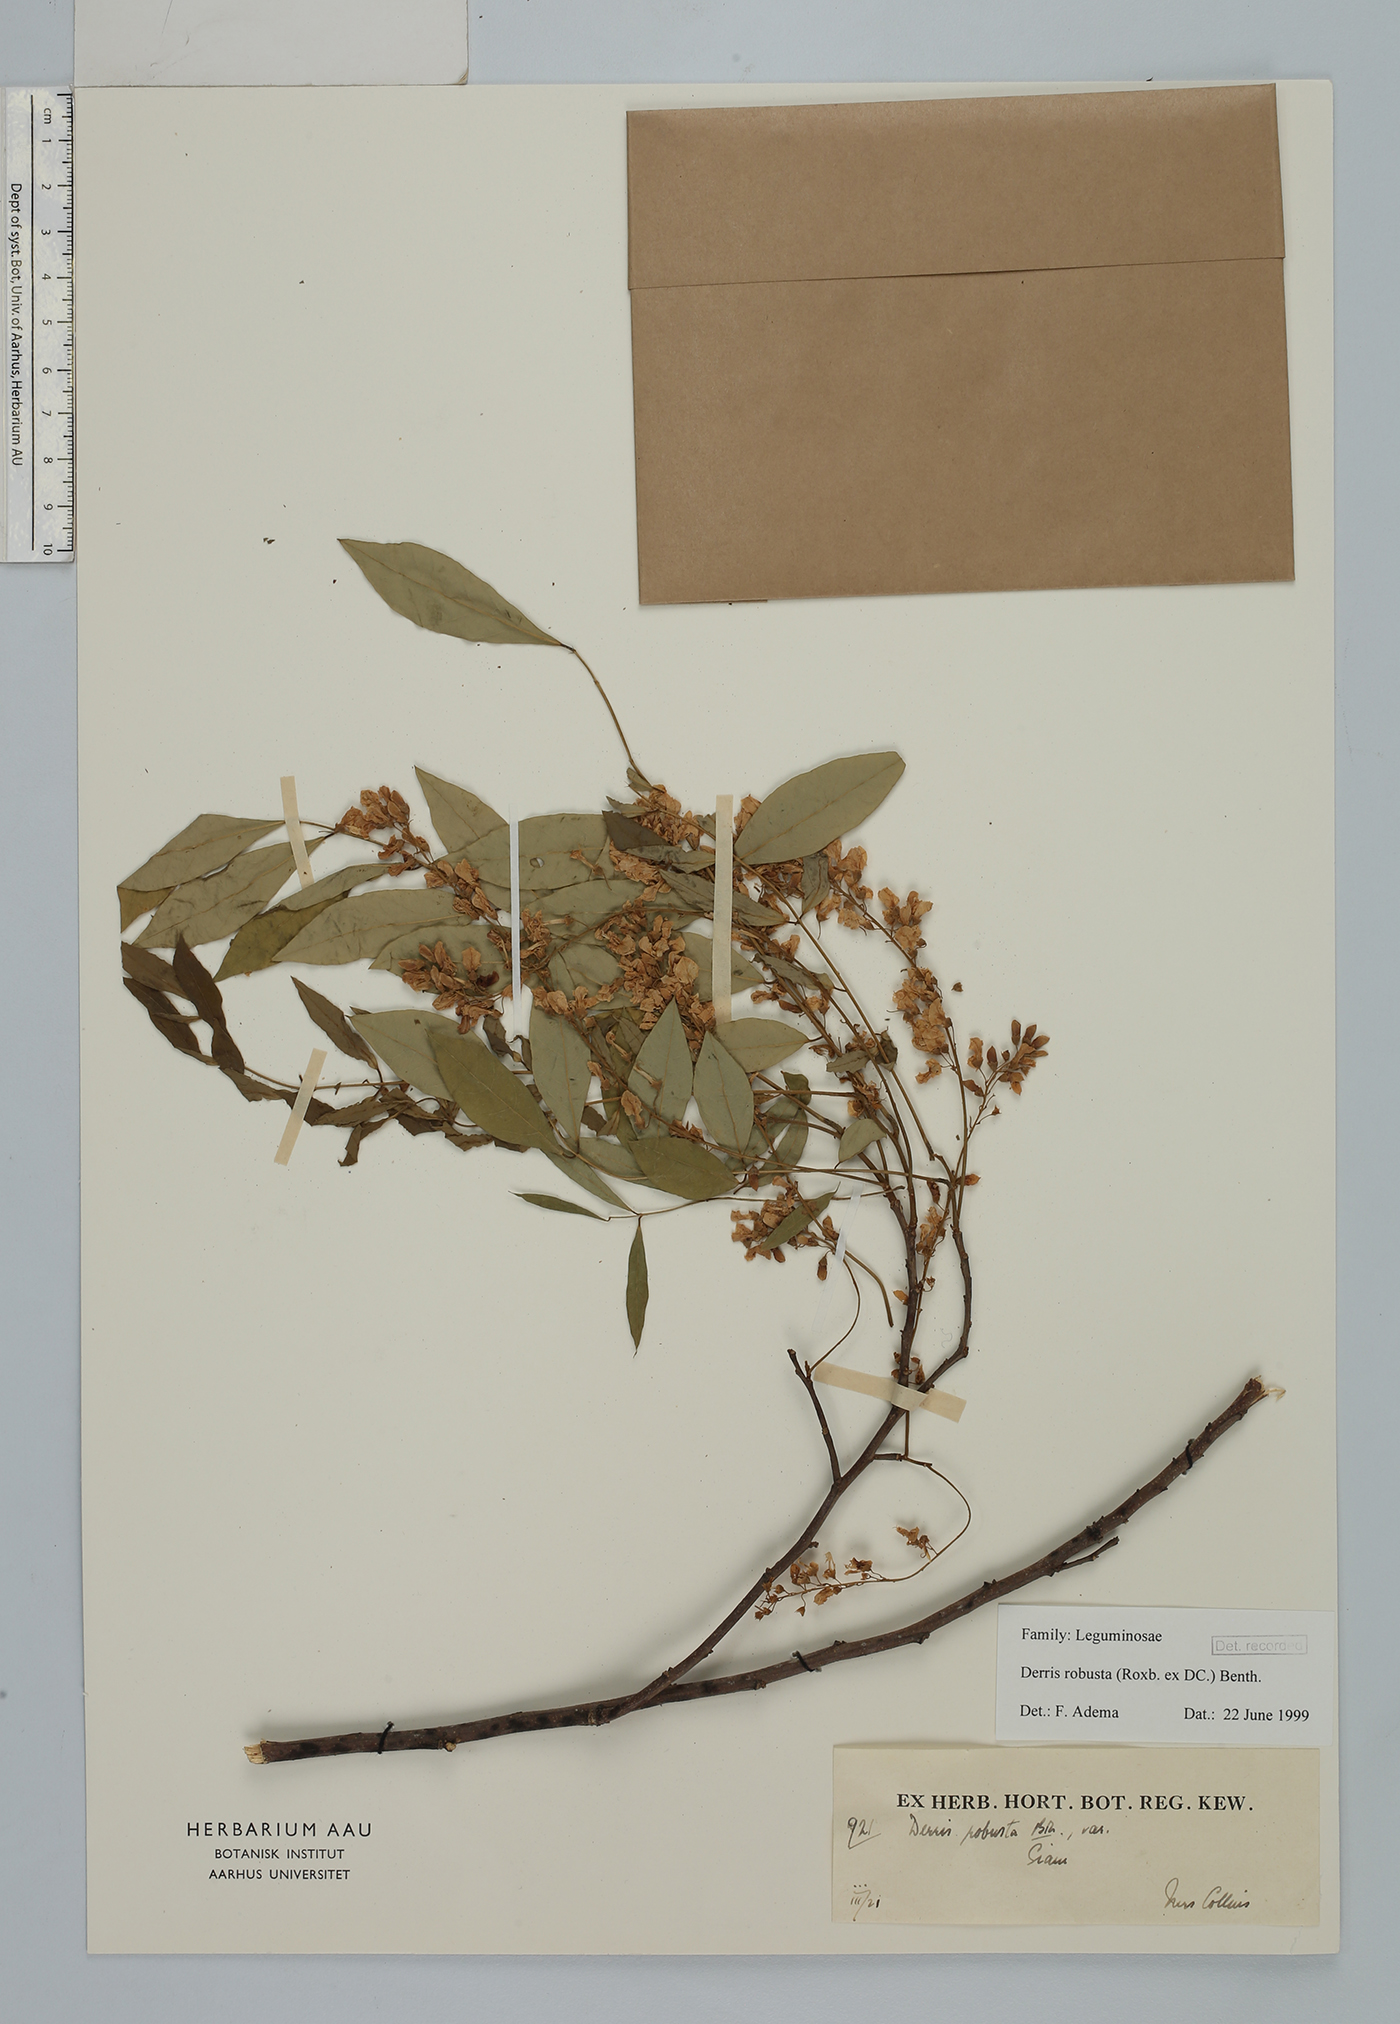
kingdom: Plantae
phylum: Tracheophyta
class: Magnoliopsida
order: Fabales
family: Fabaceae
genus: Brachypterum
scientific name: Brachypterum robustum
